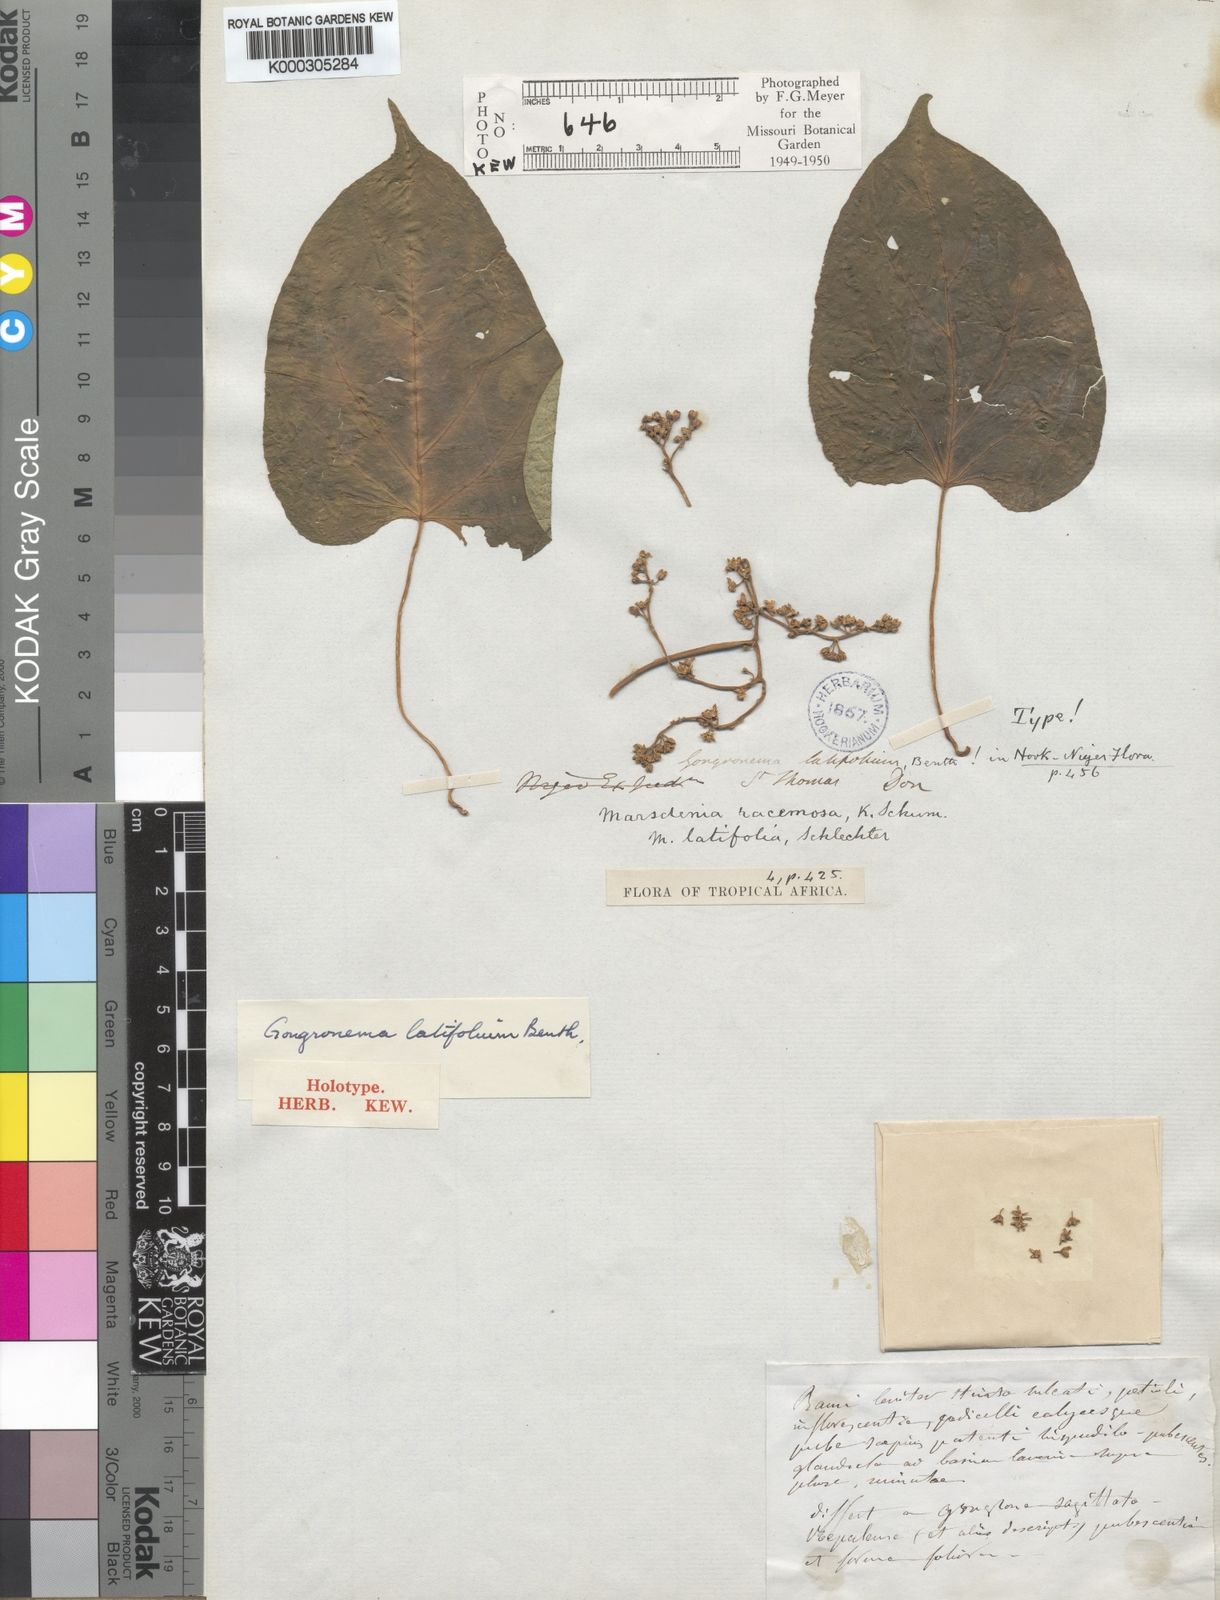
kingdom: Plantae
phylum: Tracheophyta
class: Magnoliopsida
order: Gentianales
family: Apocynaceae
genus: Gongronemopsis
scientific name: Gongronemopsis latifolia
